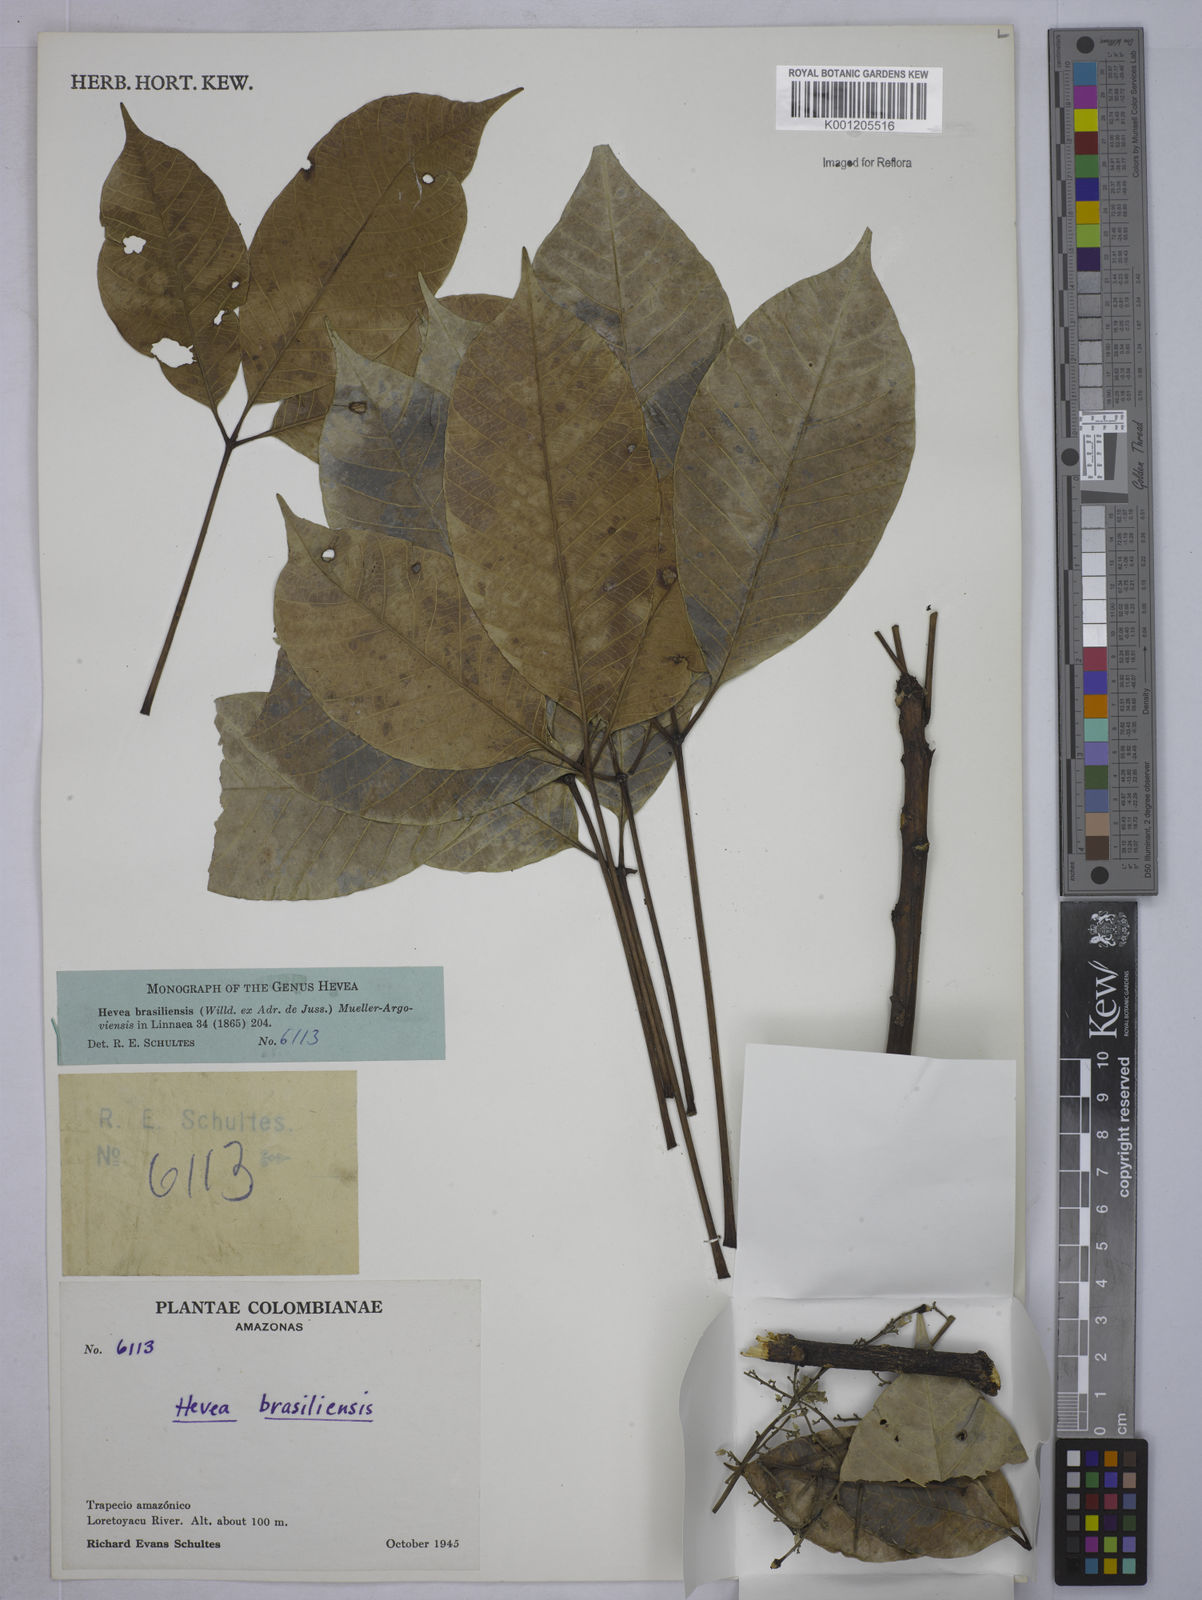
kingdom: Plantae
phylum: Tracheophyta
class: Magnoliopsida
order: Malpighiales
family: Euphorbiaceae
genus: Hevea
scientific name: Hevea
